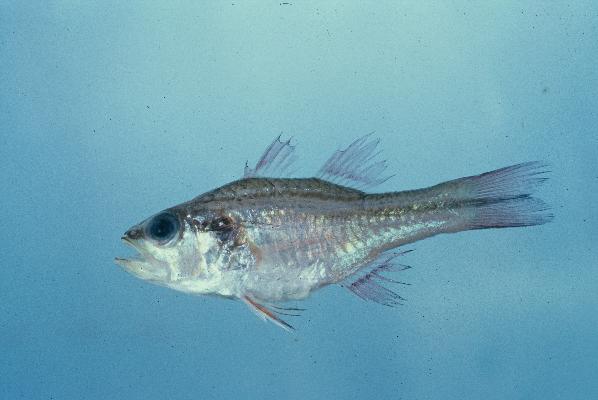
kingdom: Animalia
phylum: Chordata
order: Perciformes
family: Apogonidae
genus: Ostorhinchus
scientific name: Ostorhinchus fasciatus
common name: Twostripe cardinal
